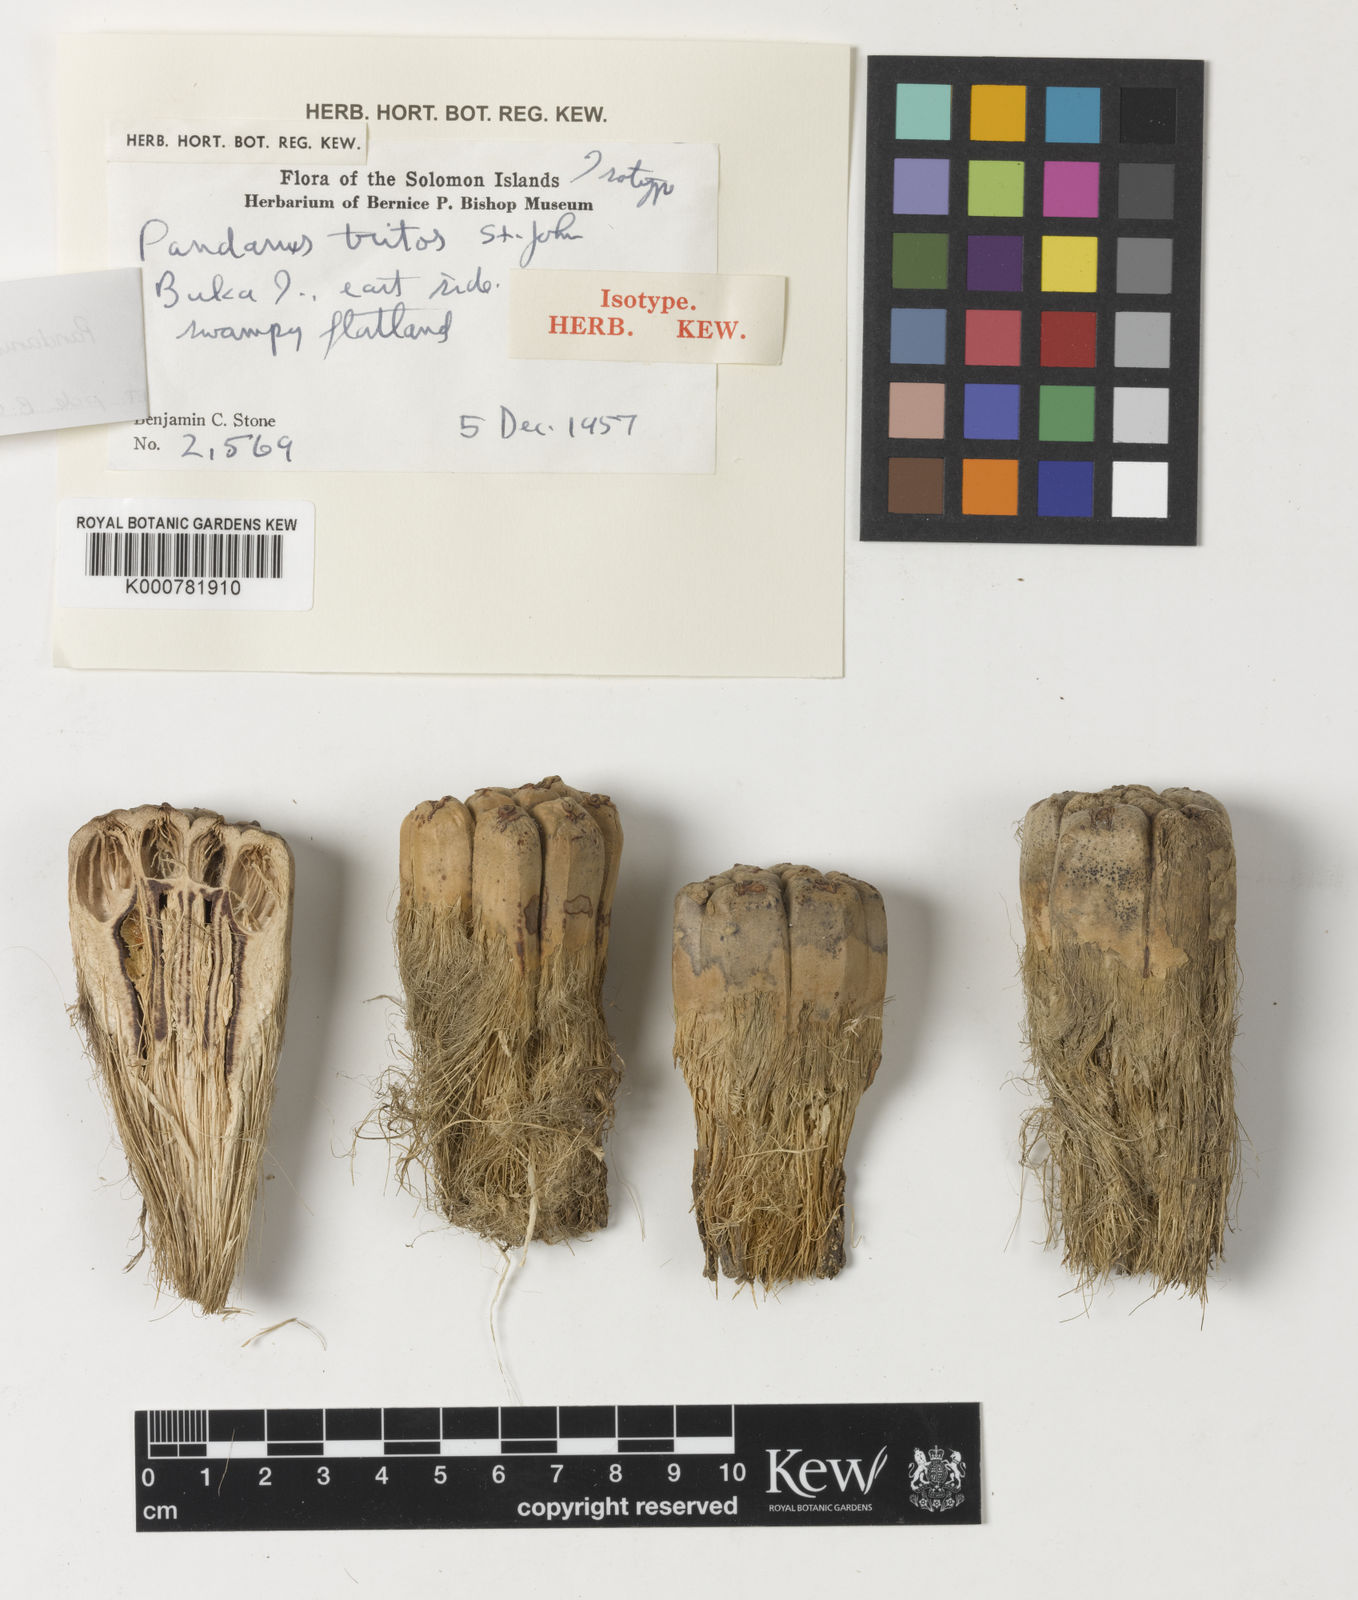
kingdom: Plantae
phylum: Tracheophyta
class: Liliopsida
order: Pandanales
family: Pandanaceae
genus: Pandanus
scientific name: Pandanus
